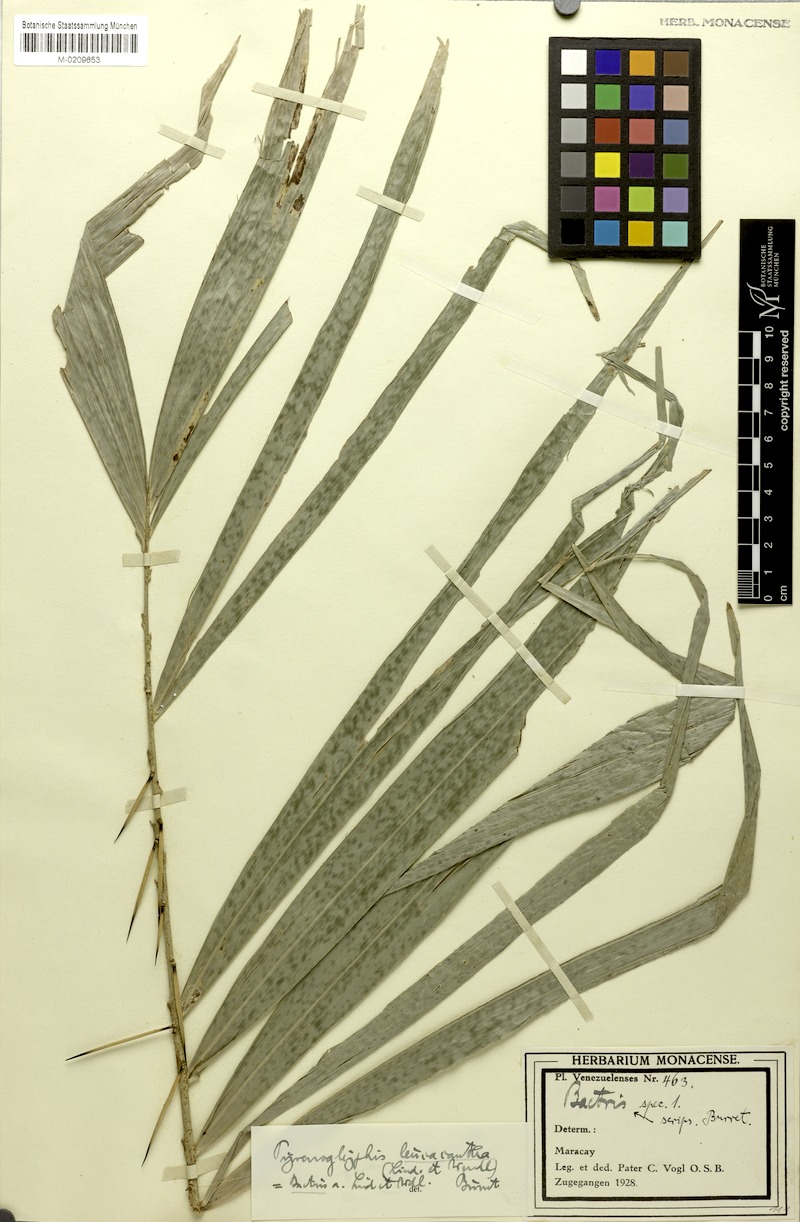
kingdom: Plantae
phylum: Tracheophyta
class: Liliopsida
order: Arecales
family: Arecaceae
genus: Bactris
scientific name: Bactris maraja
